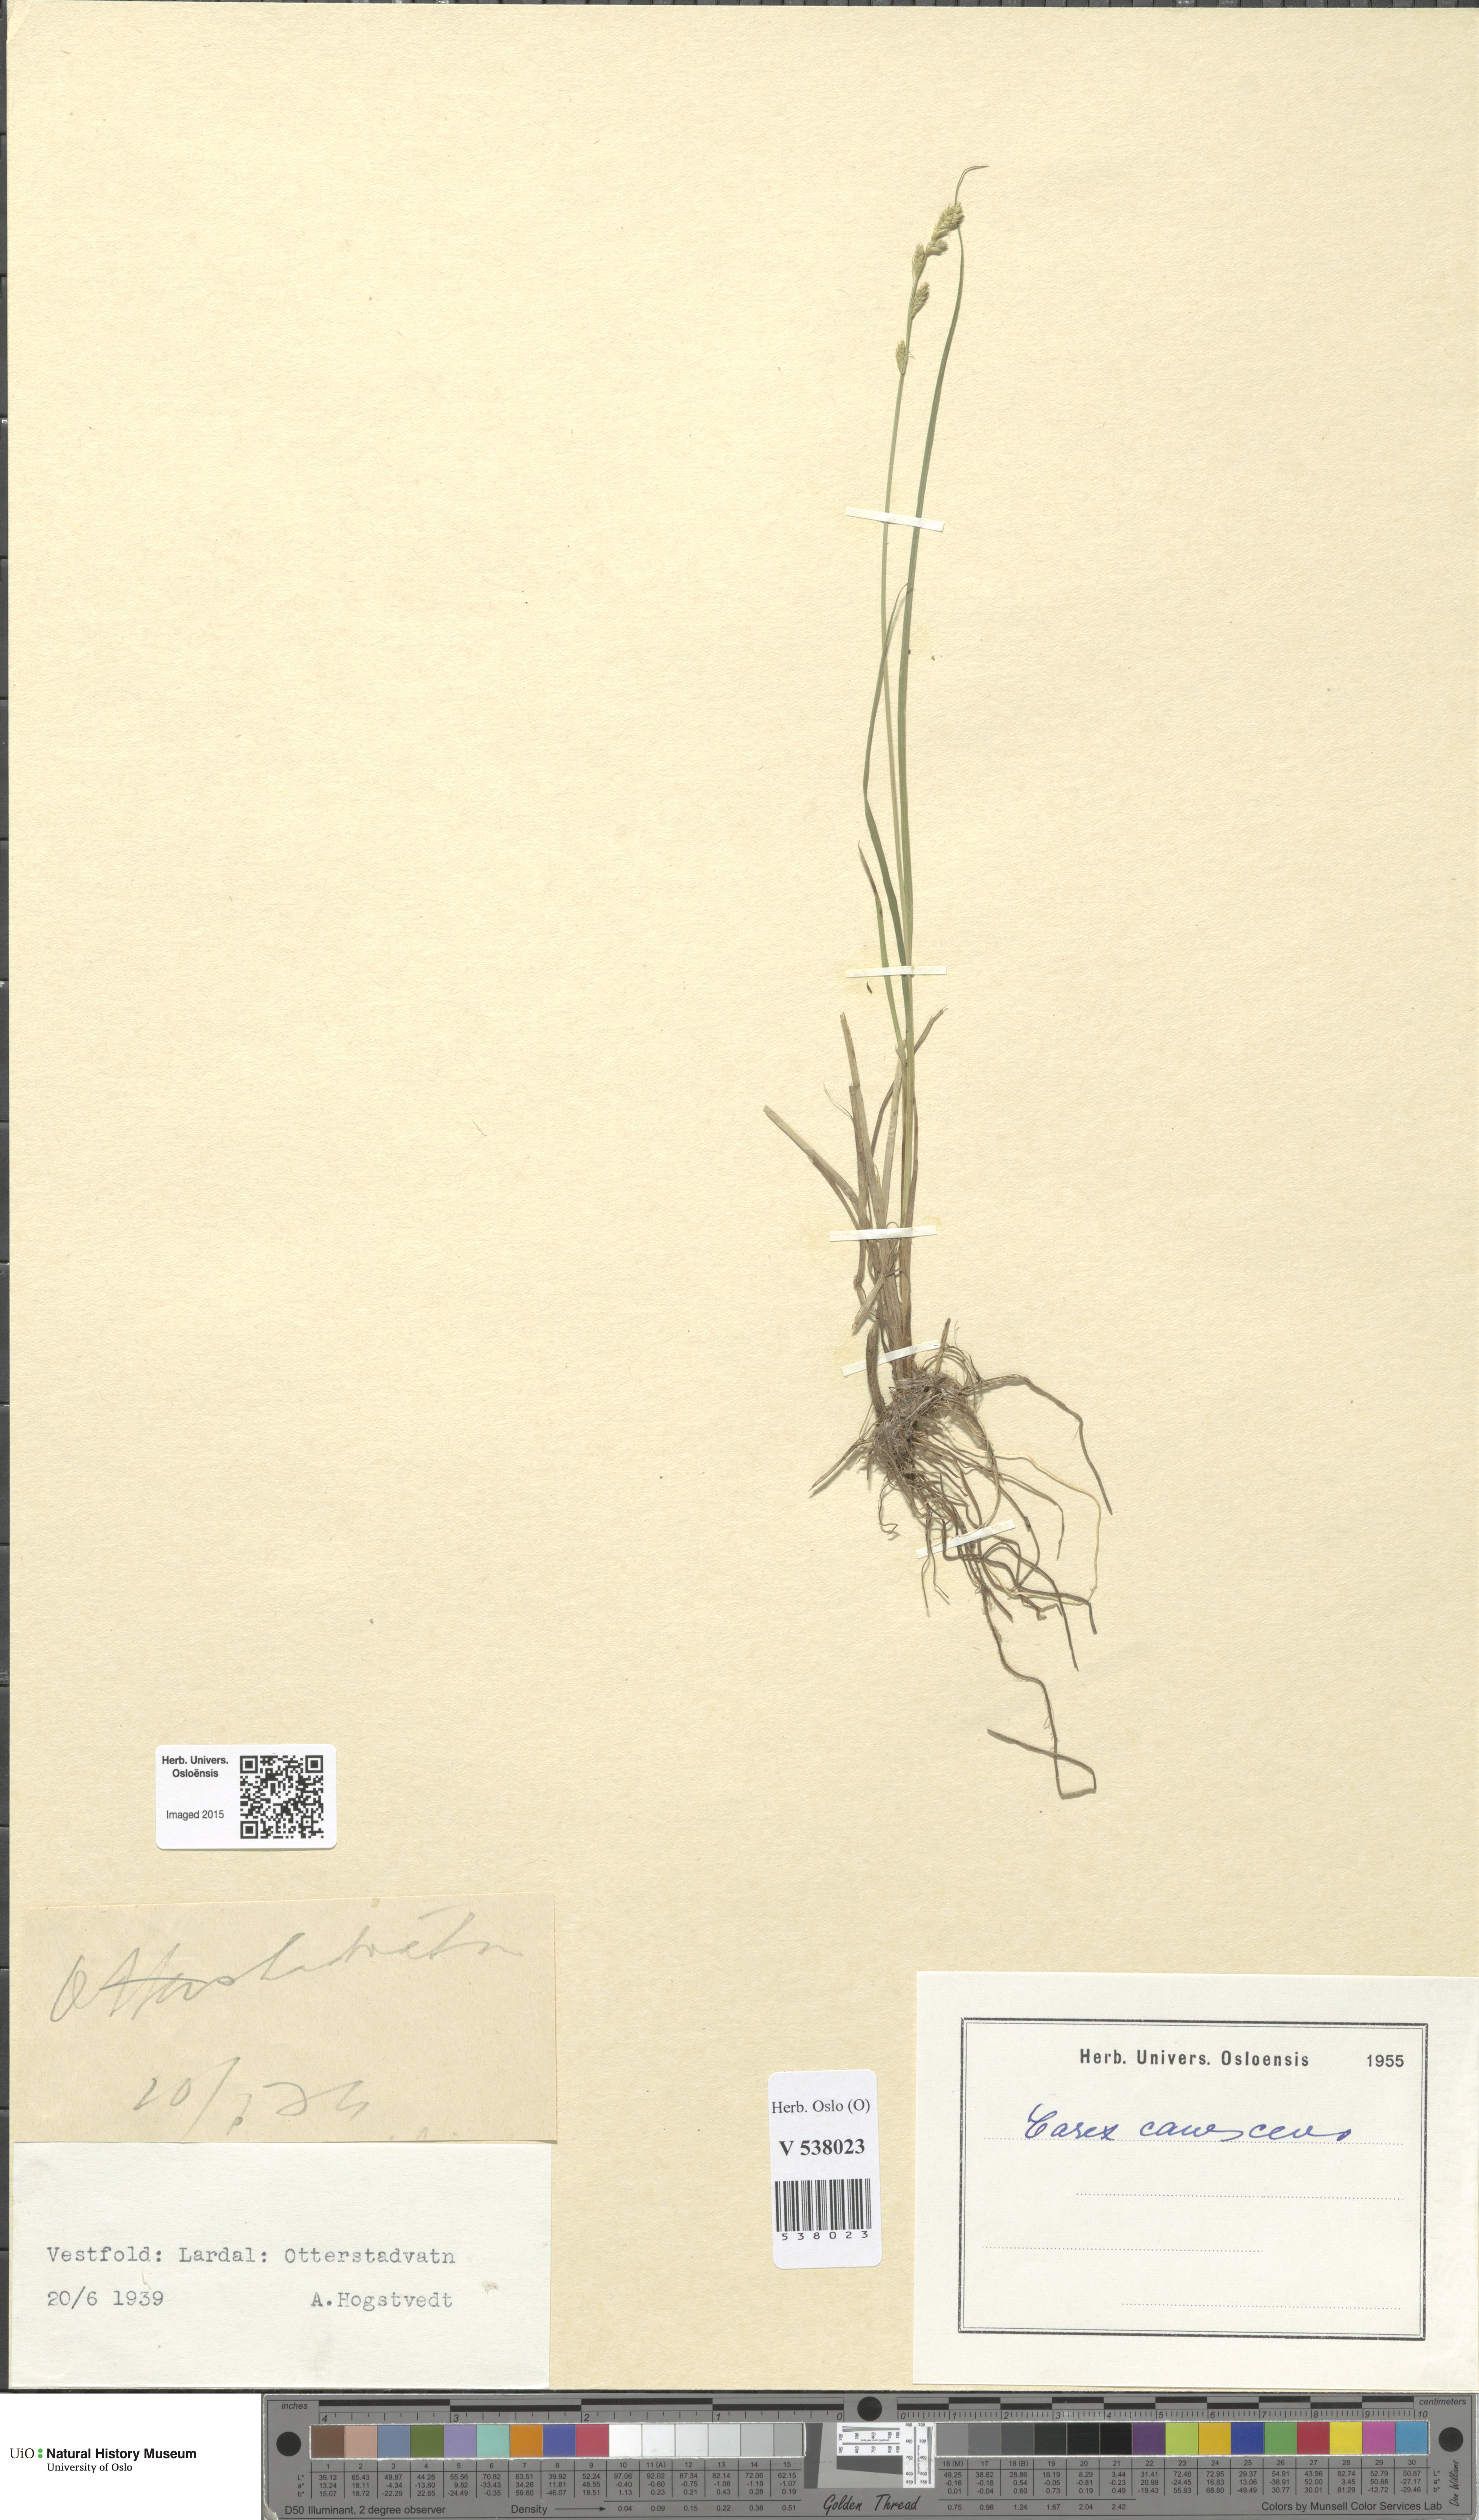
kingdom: Plantae
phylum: Tracheophyta
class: Liliopsida
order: Poales
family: Cyperaceae
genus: Carex
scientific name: Carex canescens
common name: White sedge
